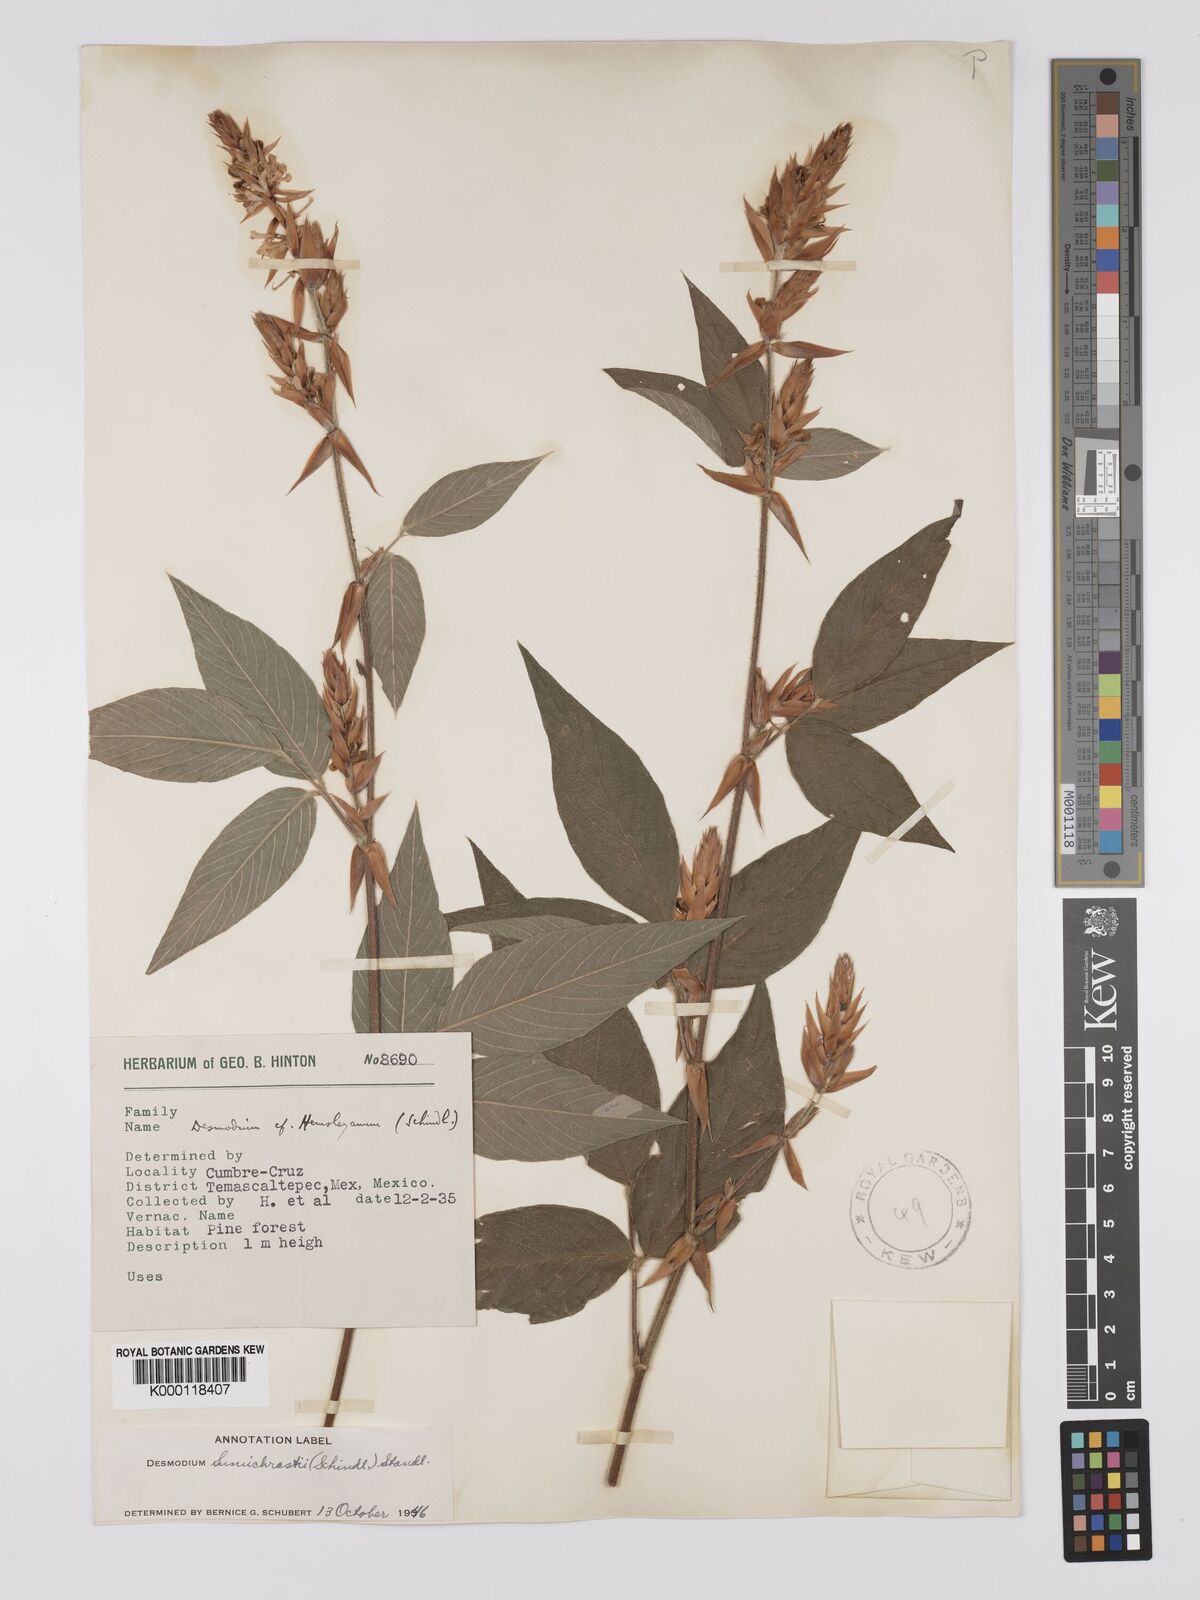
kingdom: Plantae
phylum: Tracheophyta
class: Magnoliopsida
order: Fabales
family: Fabaceae
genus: Desmodium
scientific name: Desmodium sumichrastii
